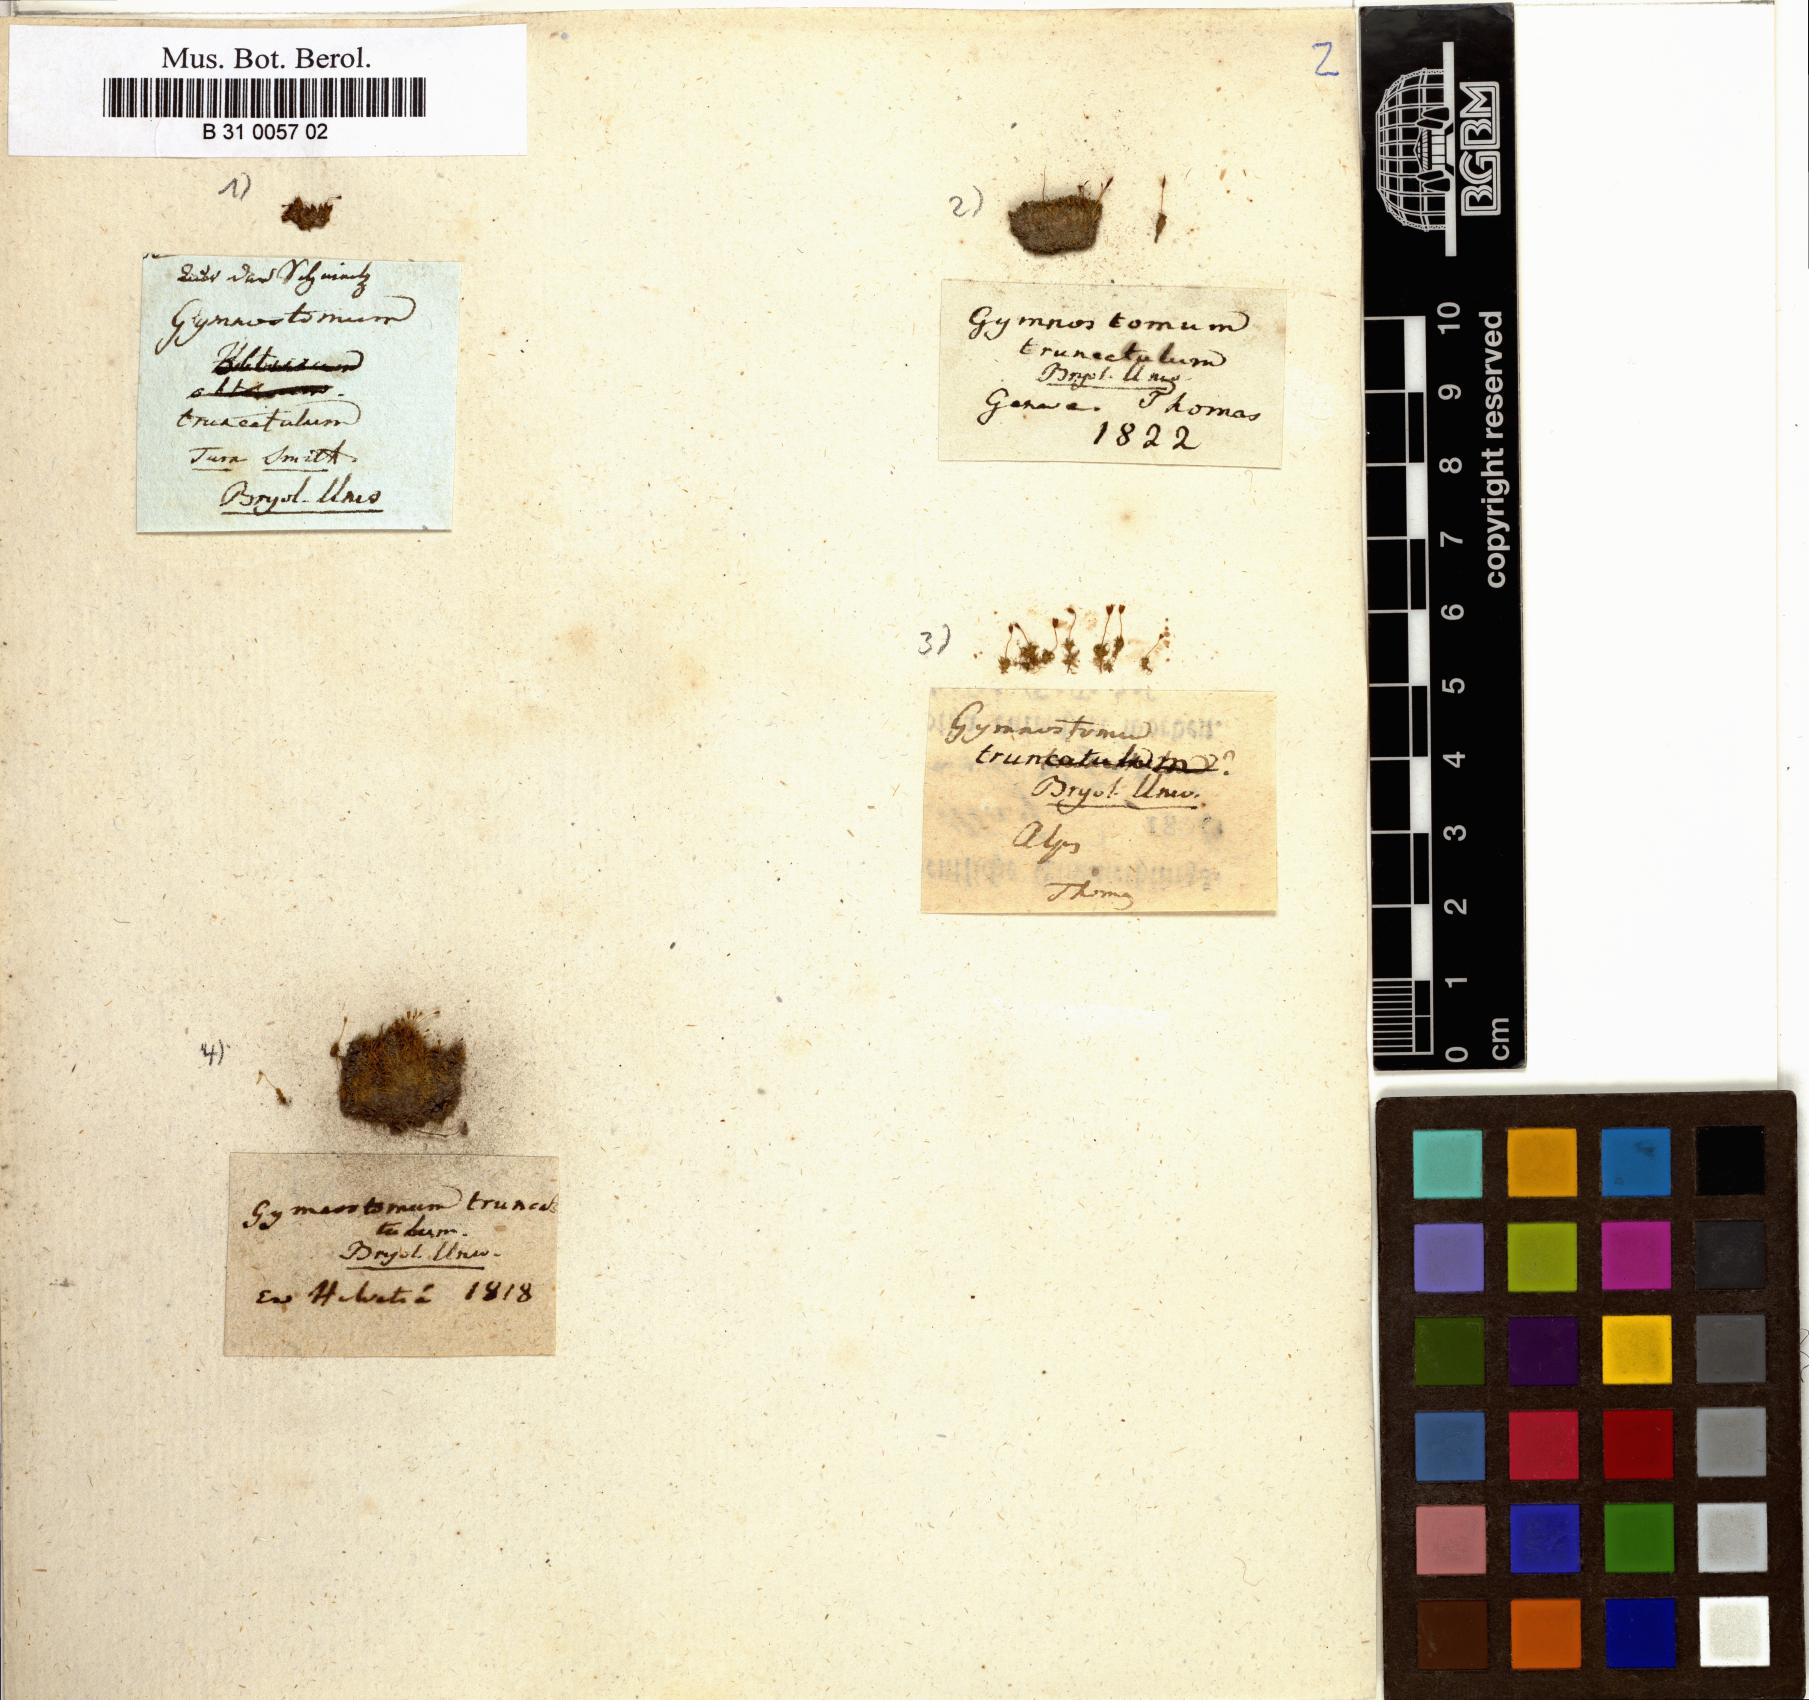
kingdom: Plantae
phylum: Bryophyta
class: Bryopsida
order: Pottiales
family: Pottiaceae
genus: Tortula
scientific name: Tortula truncata
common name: Truncated screw moss
